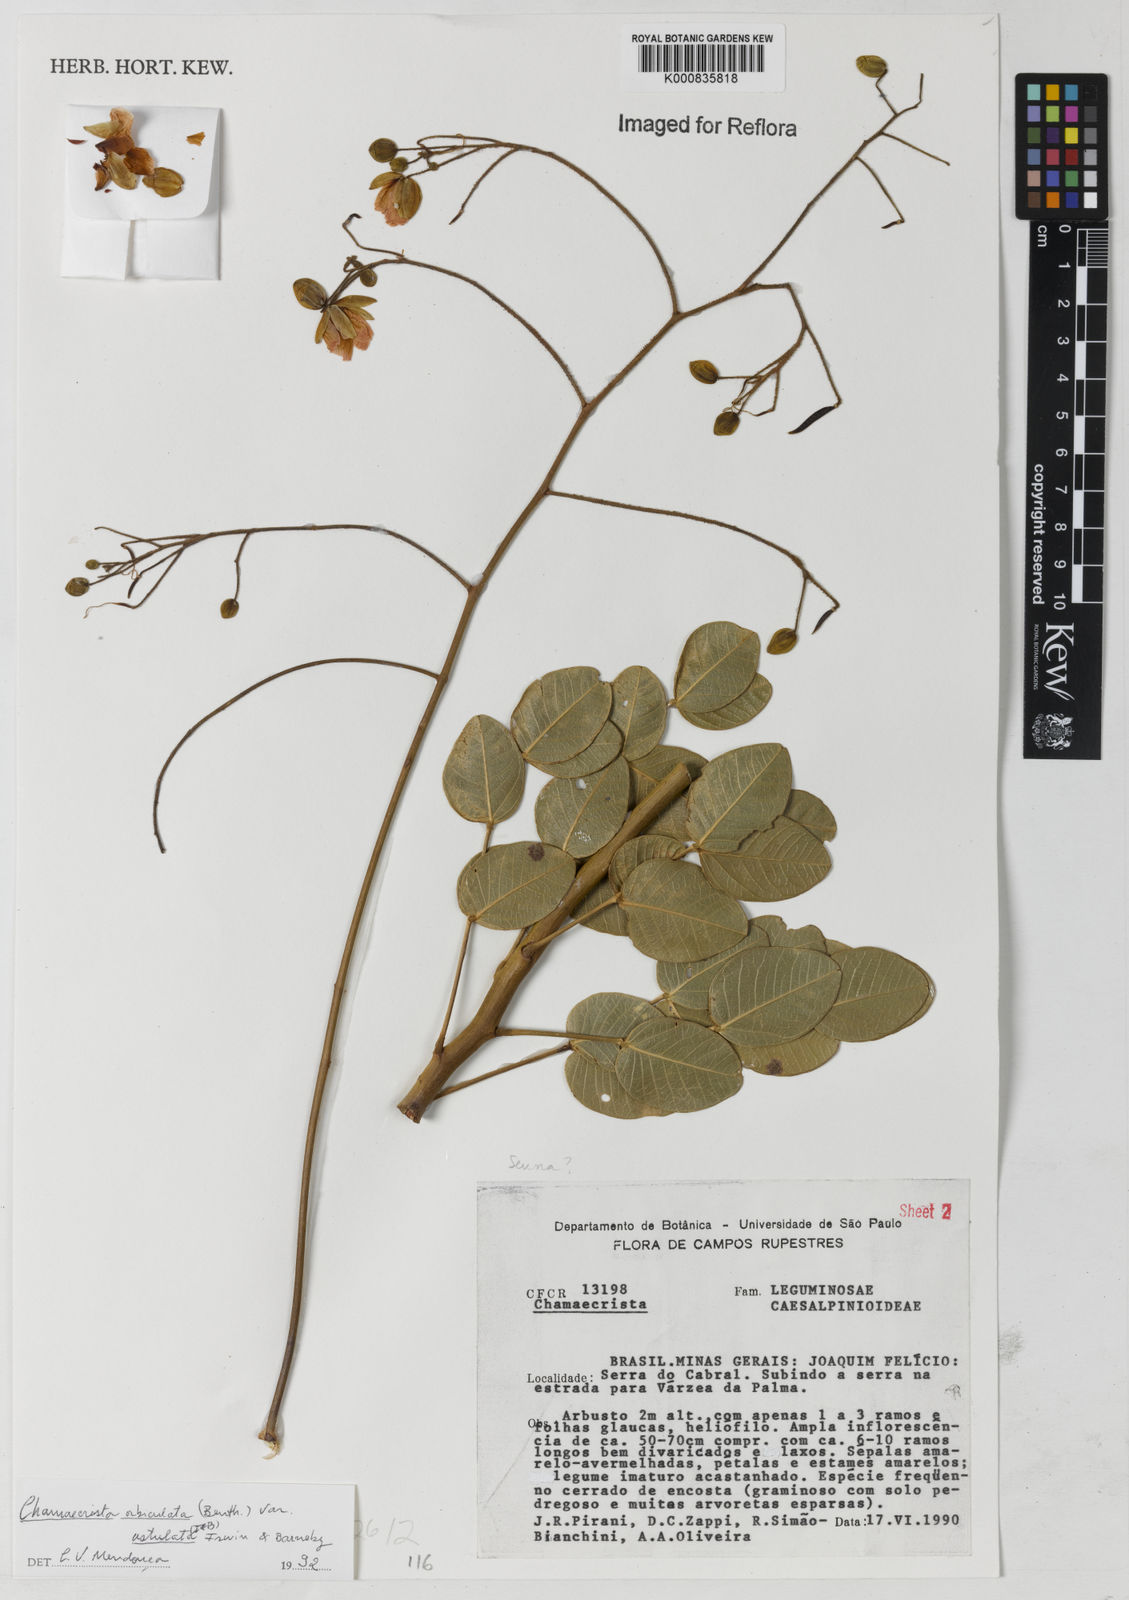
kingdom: Plantae
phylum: Tracheophyta
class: Magnoliopsida
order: Fabales
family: Fabaceae
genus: Chamaecrista
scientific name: Chamaecrista ustulata
